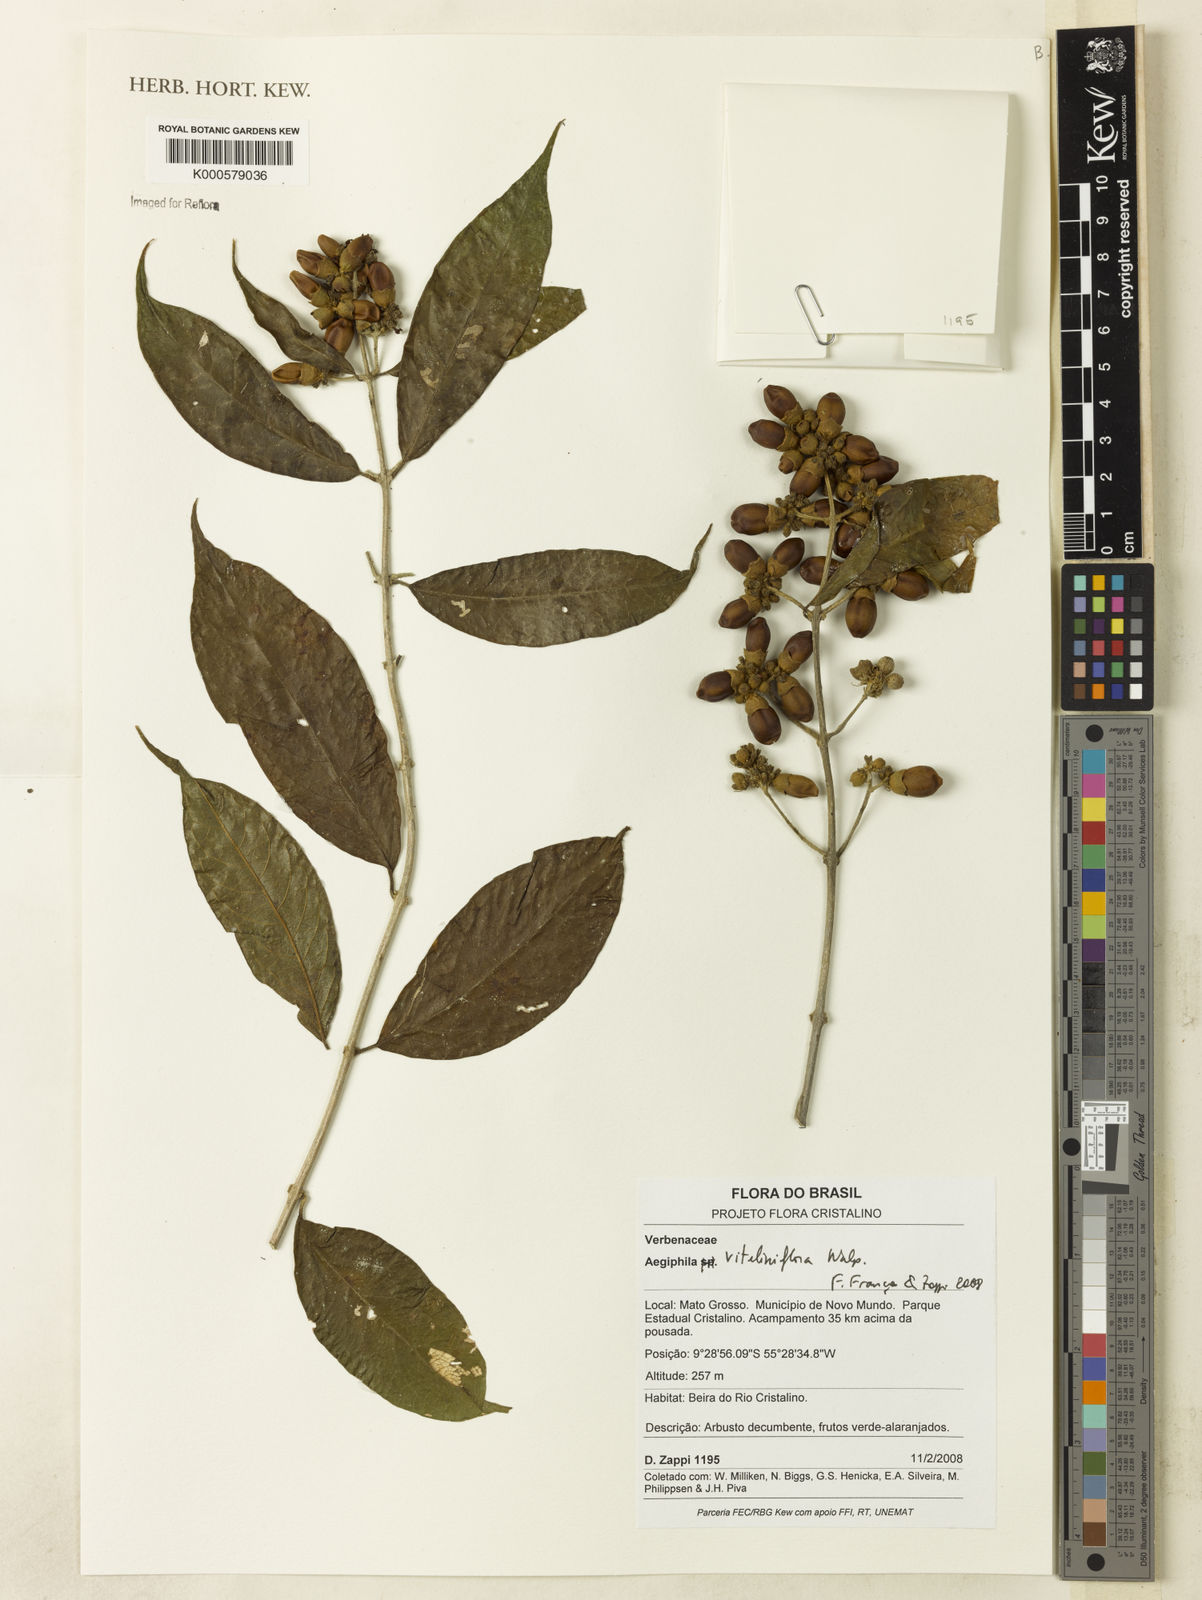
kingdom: Plantae
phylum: Tracheophyta
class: Magnoliopsida
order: Lamiales
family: Lamiaceae
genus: Aegiphila
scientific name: Aegiphila
